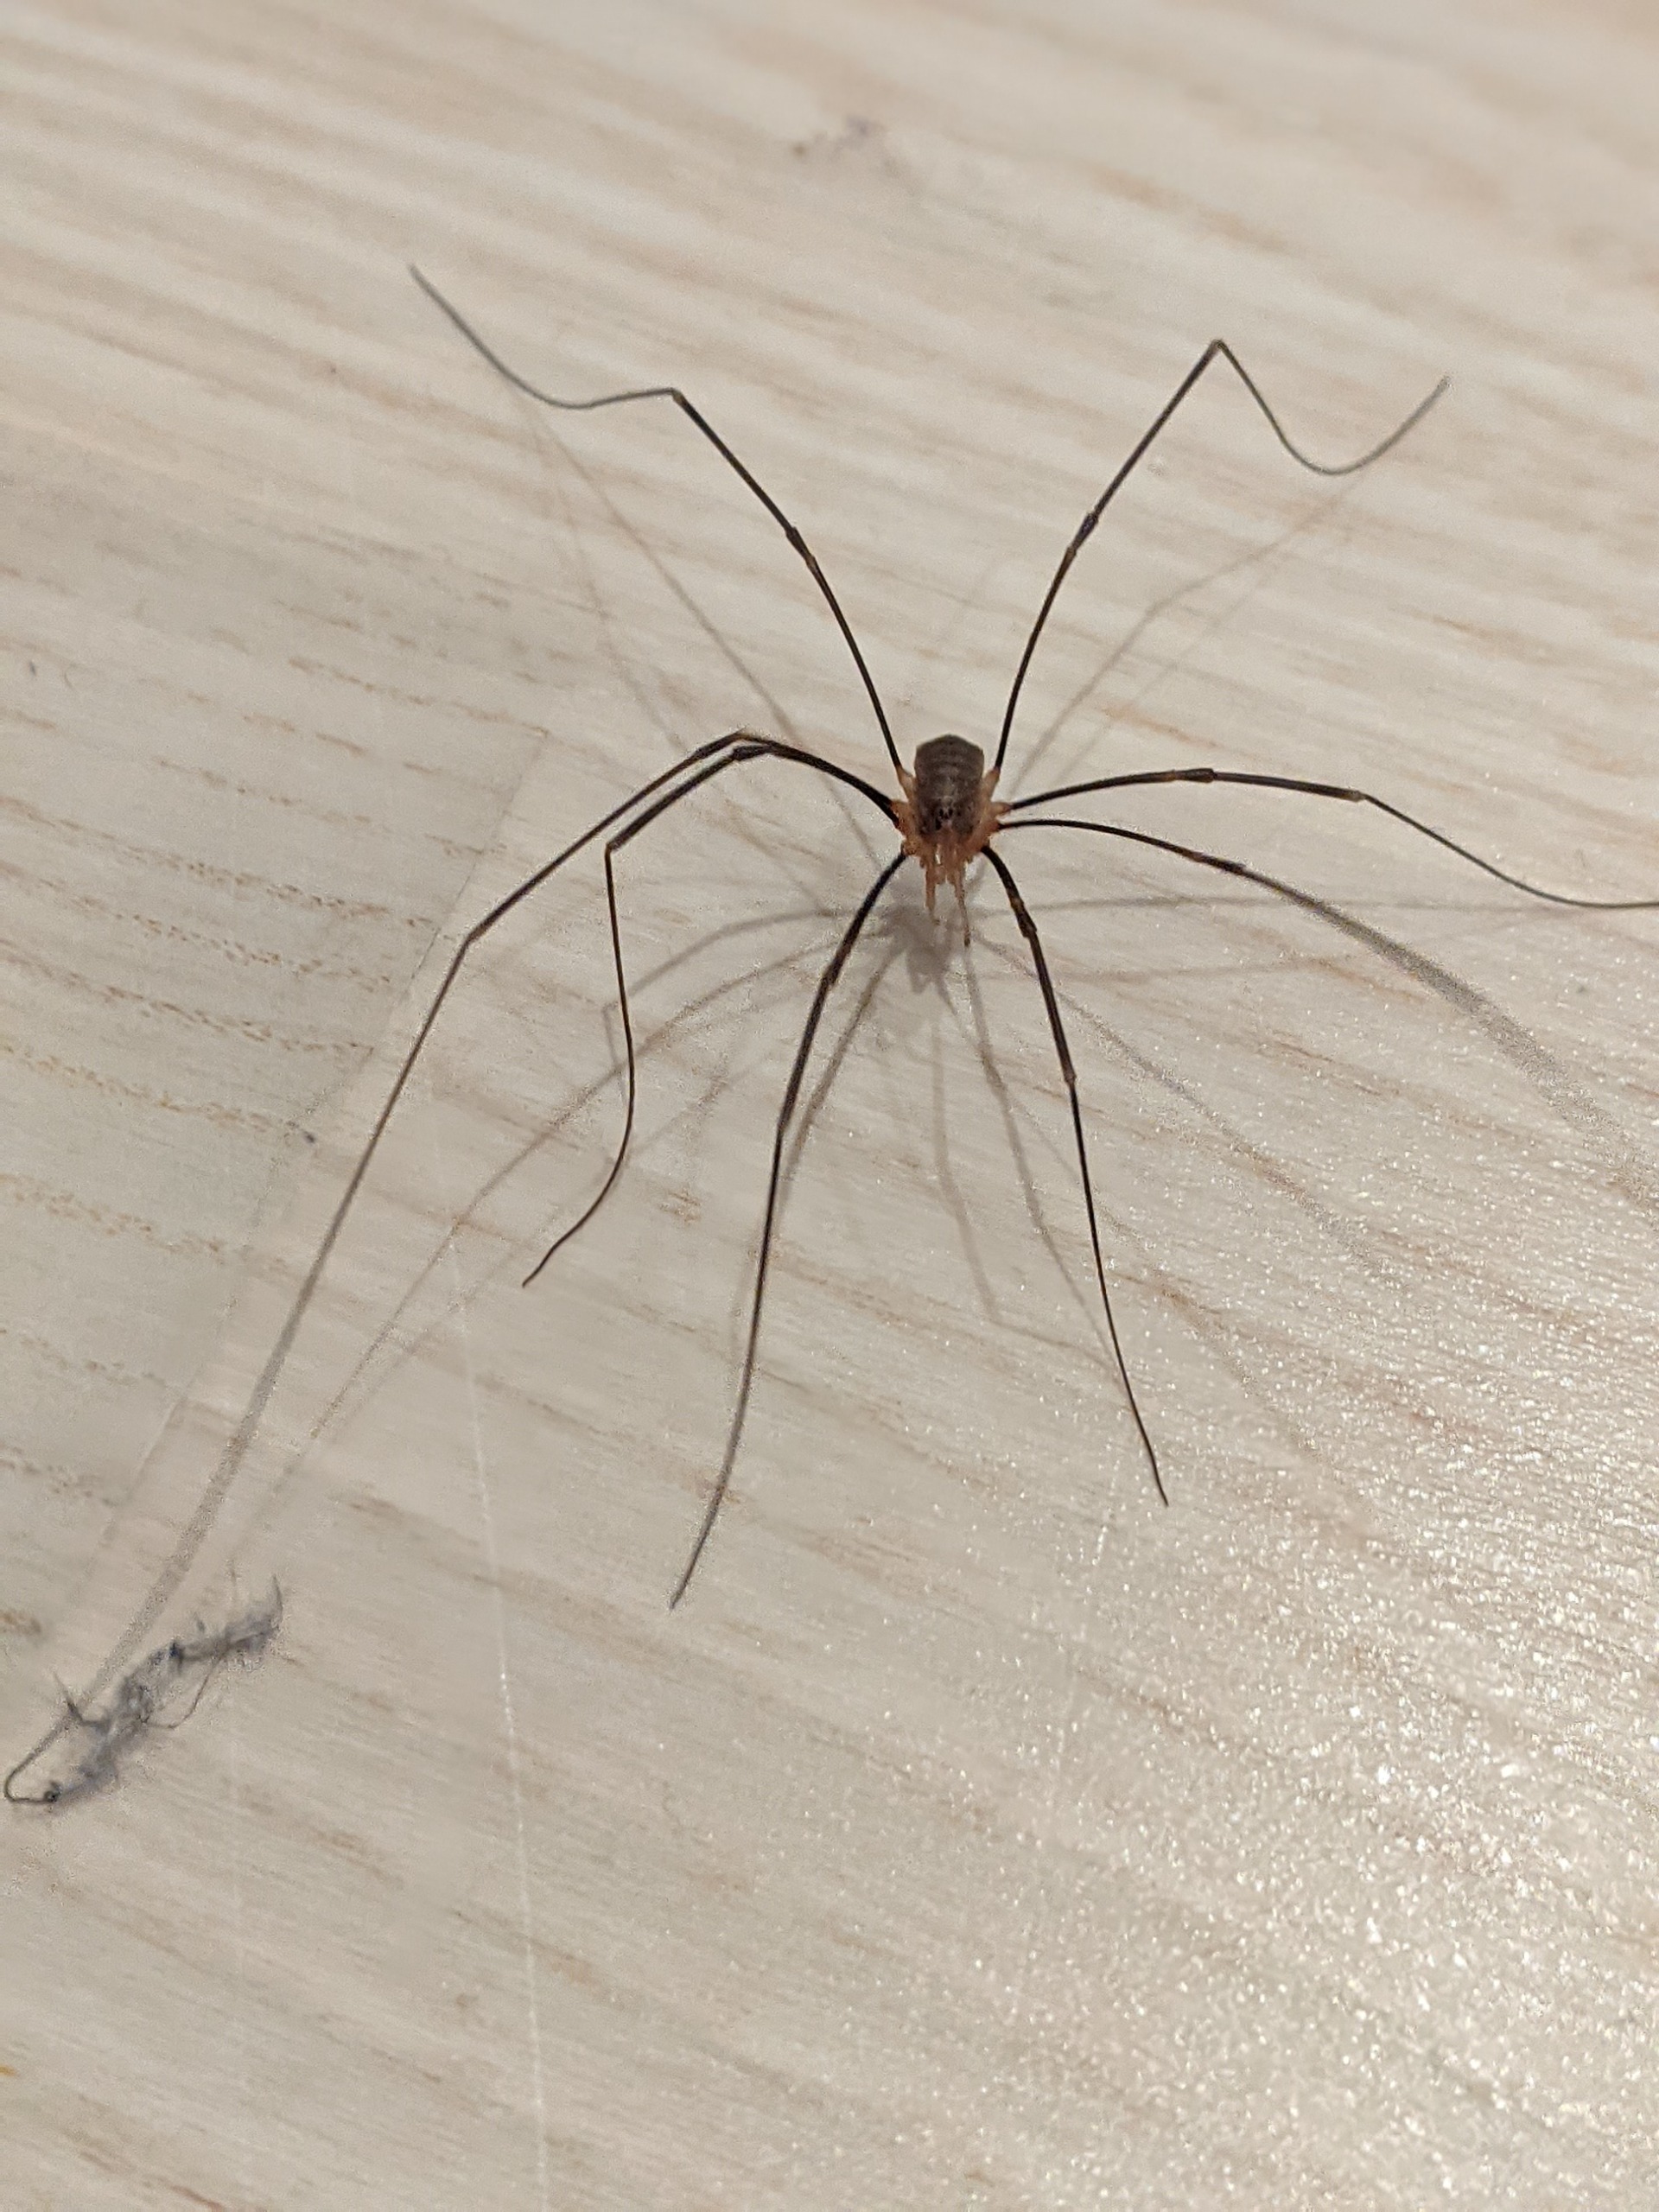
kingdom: Animalia
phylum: Arthropoda
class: Arachnida
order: Opiliones
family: Phalangiidae
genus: Opilio
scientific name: Opilio canestrinii
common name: Orange vægmejer
